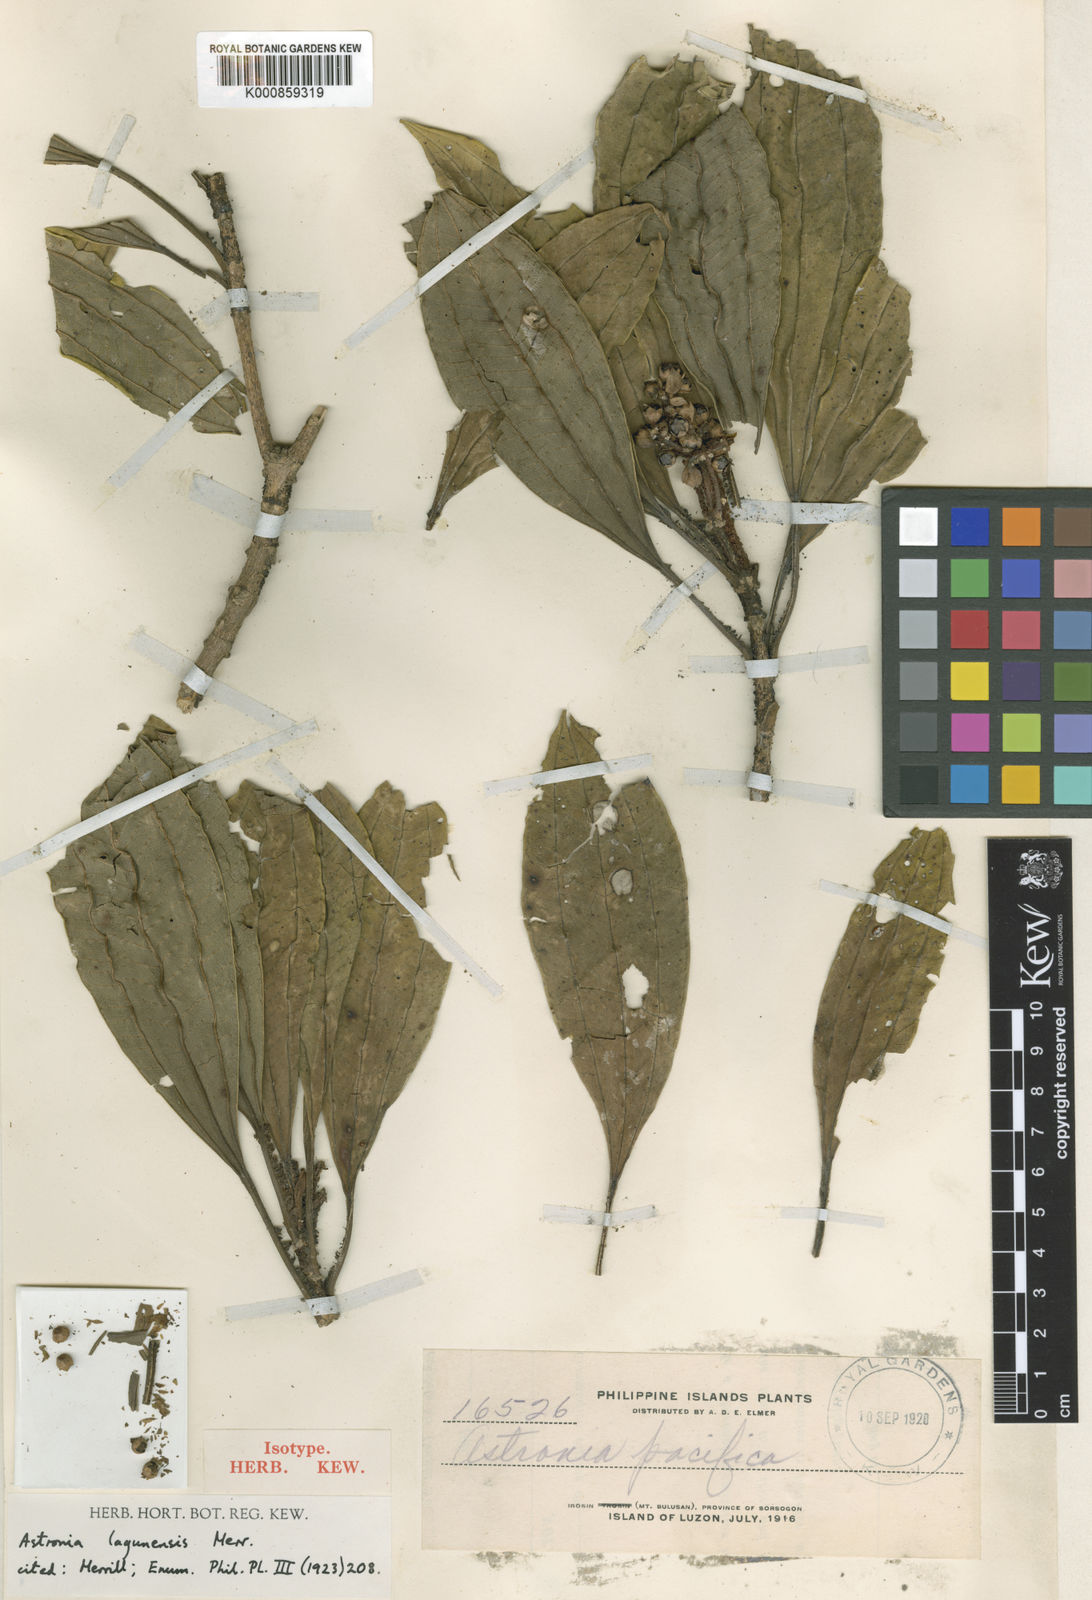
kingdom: Plantae
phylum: Tracheophyta
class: Magnoliopsida
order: Myrtales
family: Melastomataceae
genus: Astronia
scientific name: Astronia lagunensis
